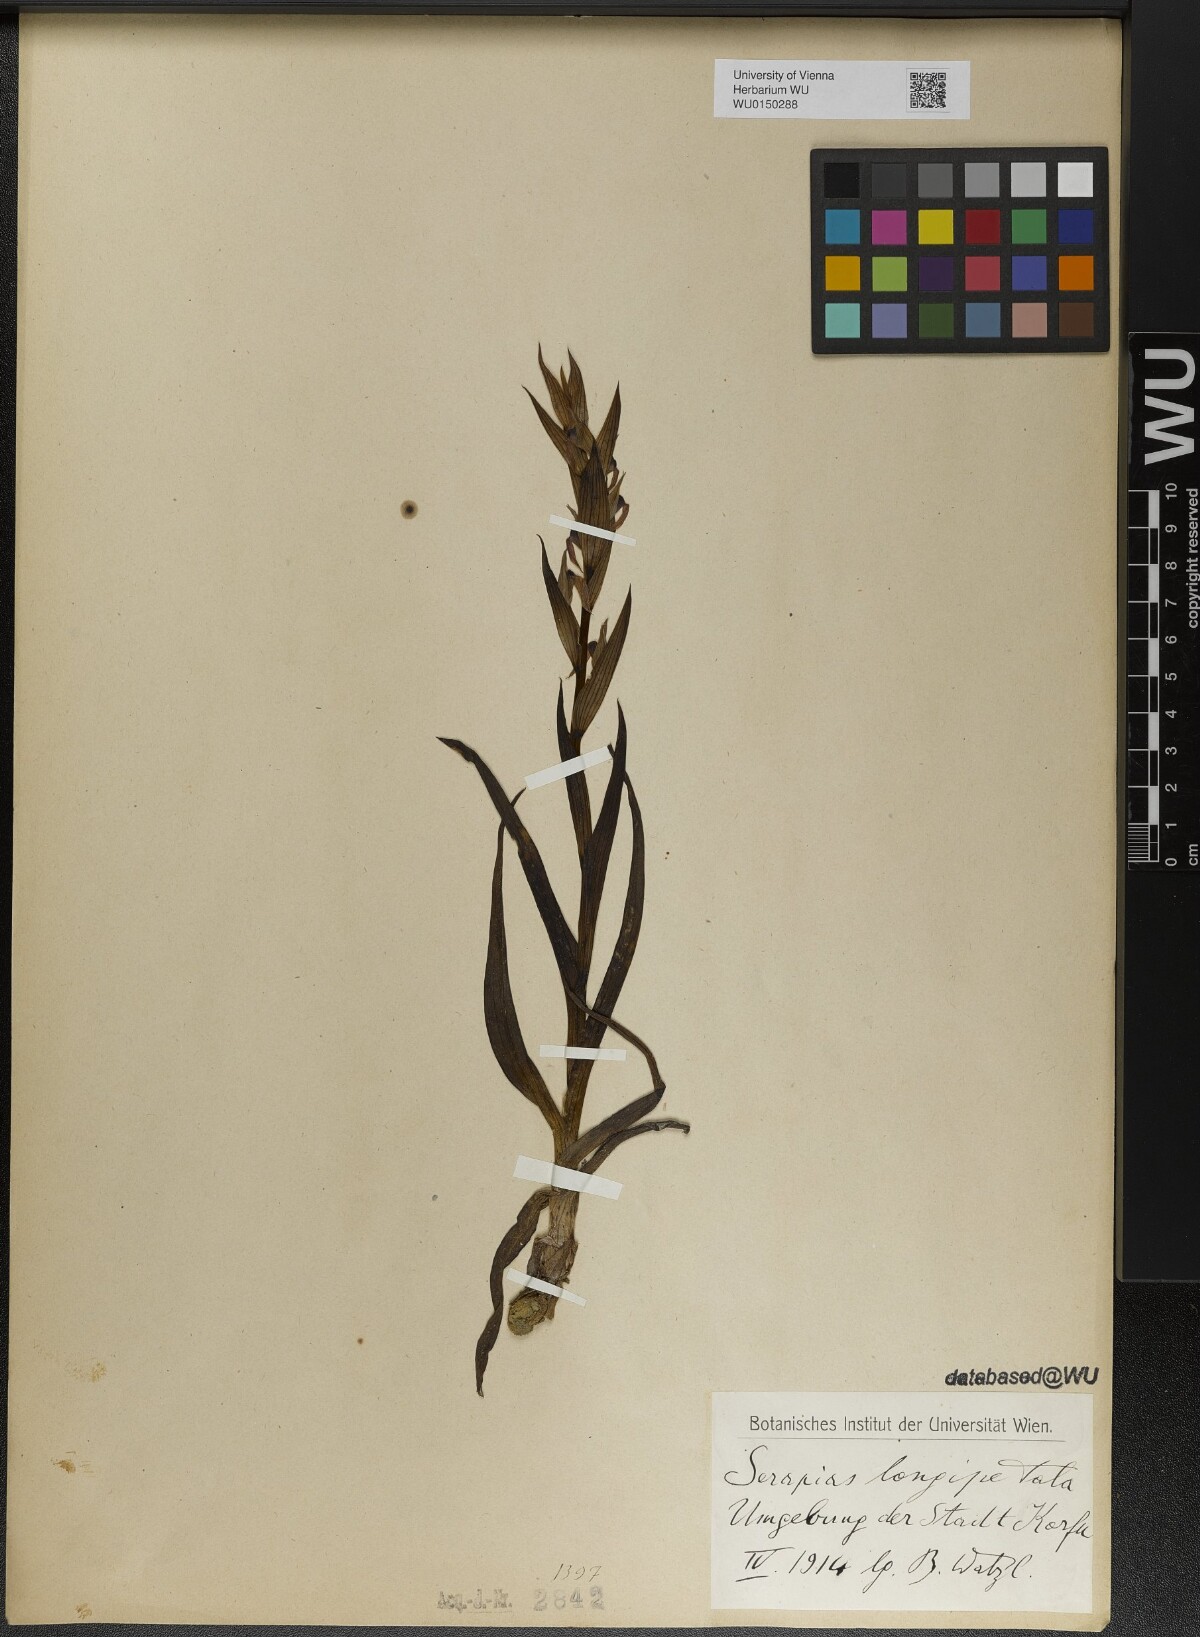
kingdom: Plantae
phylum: Tracheophyta
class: Liliopsida
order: Asparagales
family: Orchidaceae
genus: Serapias
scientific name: Serapias vomeracea
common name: Long-lipped tongue-orchid
